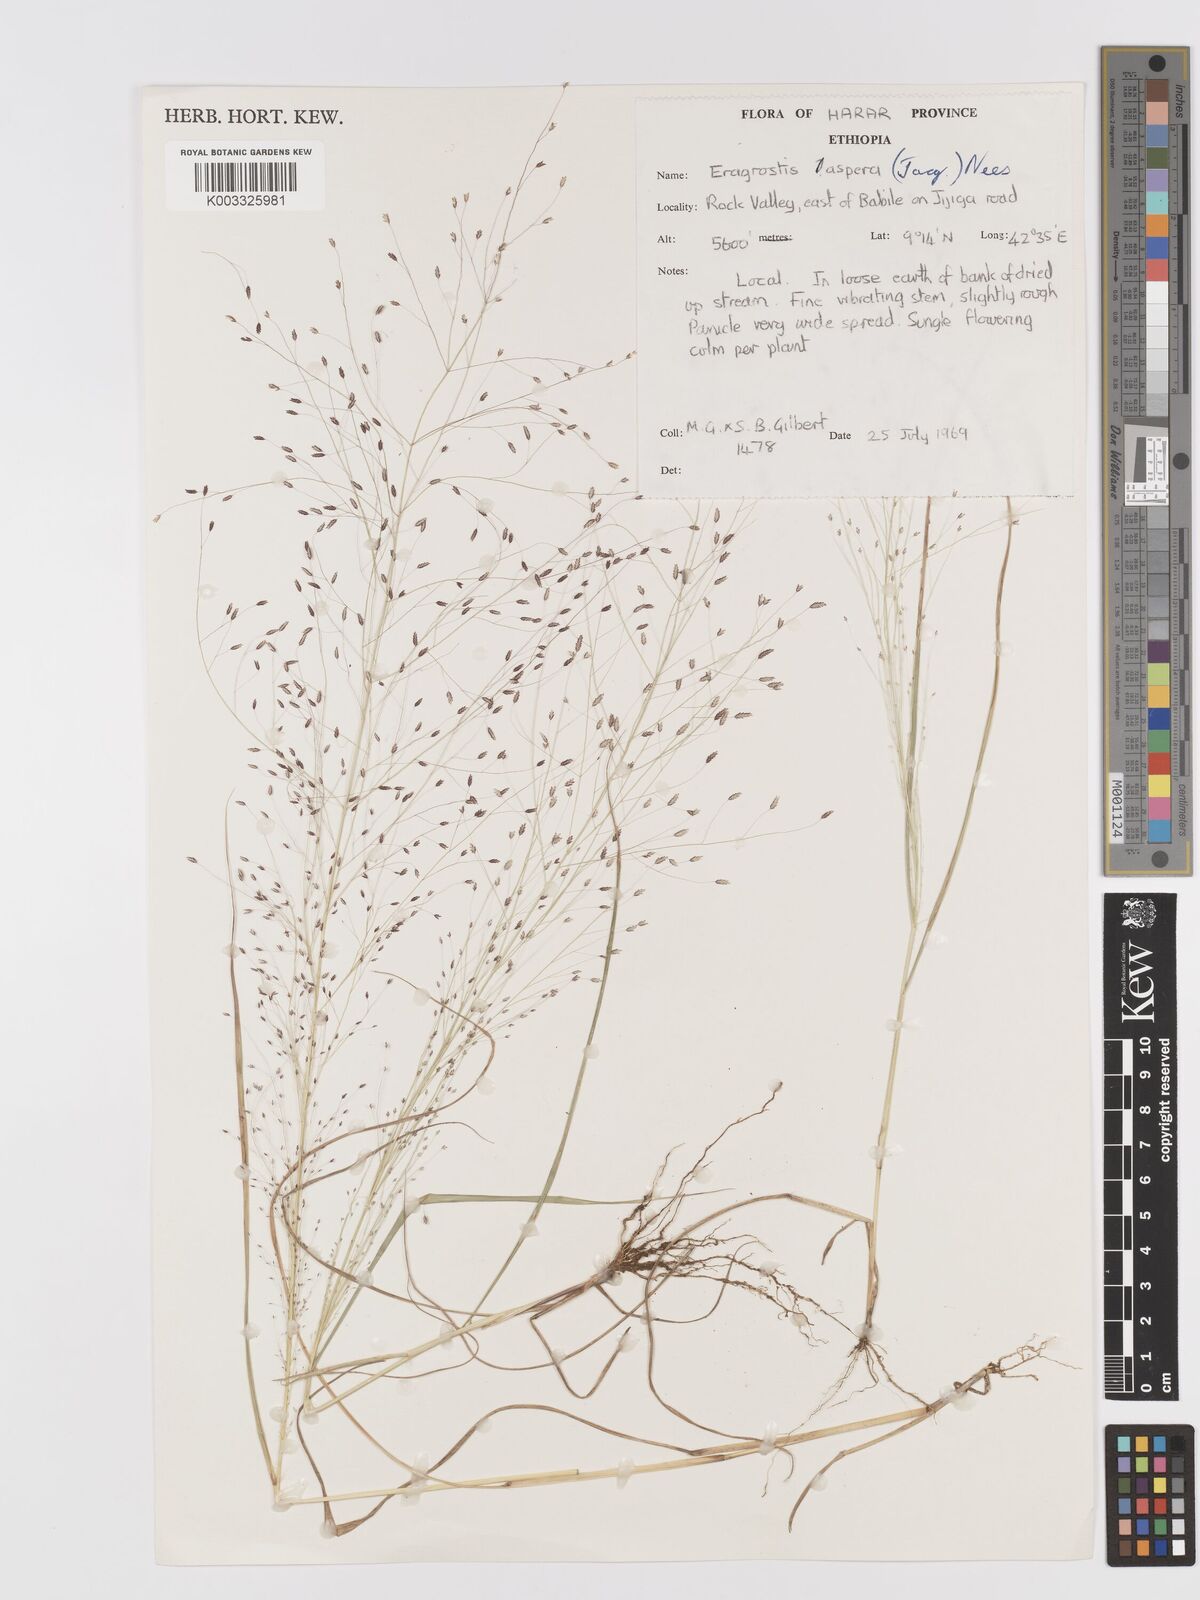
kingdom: Plantae
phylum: Tracheophyta
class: Liliopsida
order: Poales
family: Poaceae
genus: Eragrostis
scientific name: Eragrostis aspera
